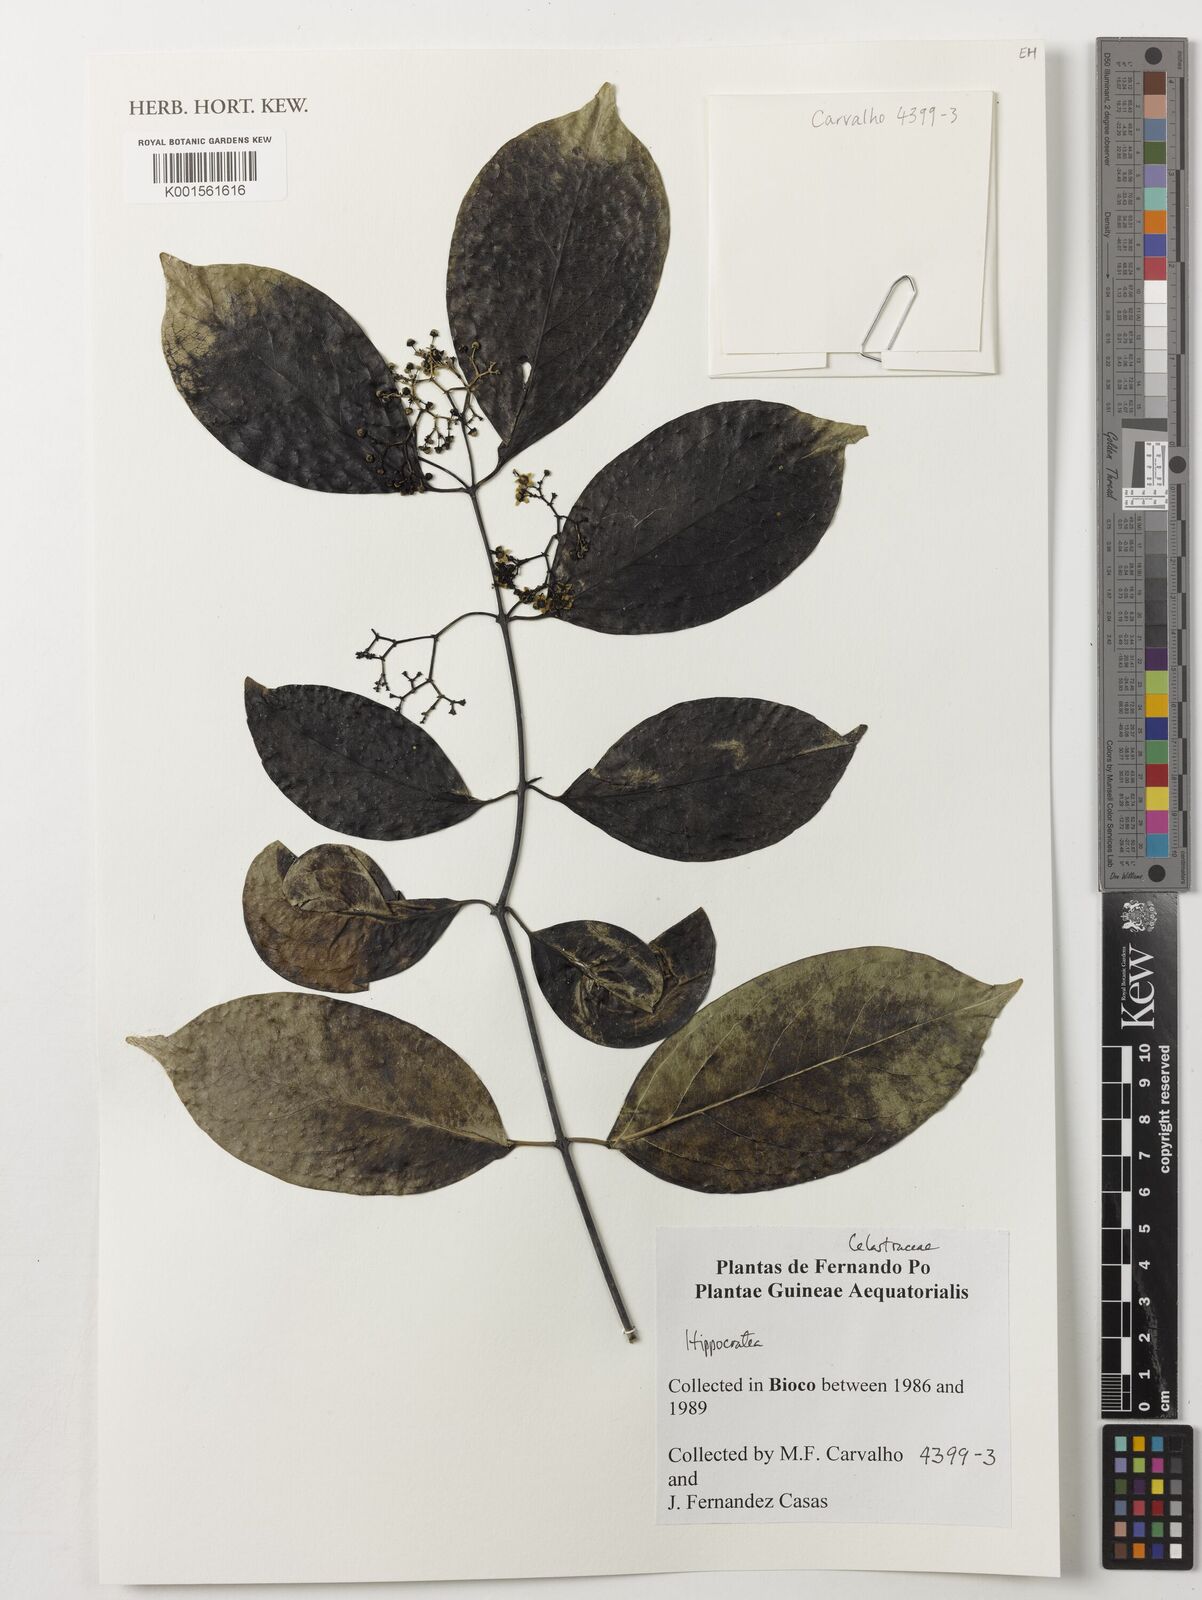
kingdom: Plantae
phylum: Tracheophyta
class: Magnoliopsida
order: Celastrales
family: Celastraceae
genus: Hippocratea
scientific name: Hippocratea
